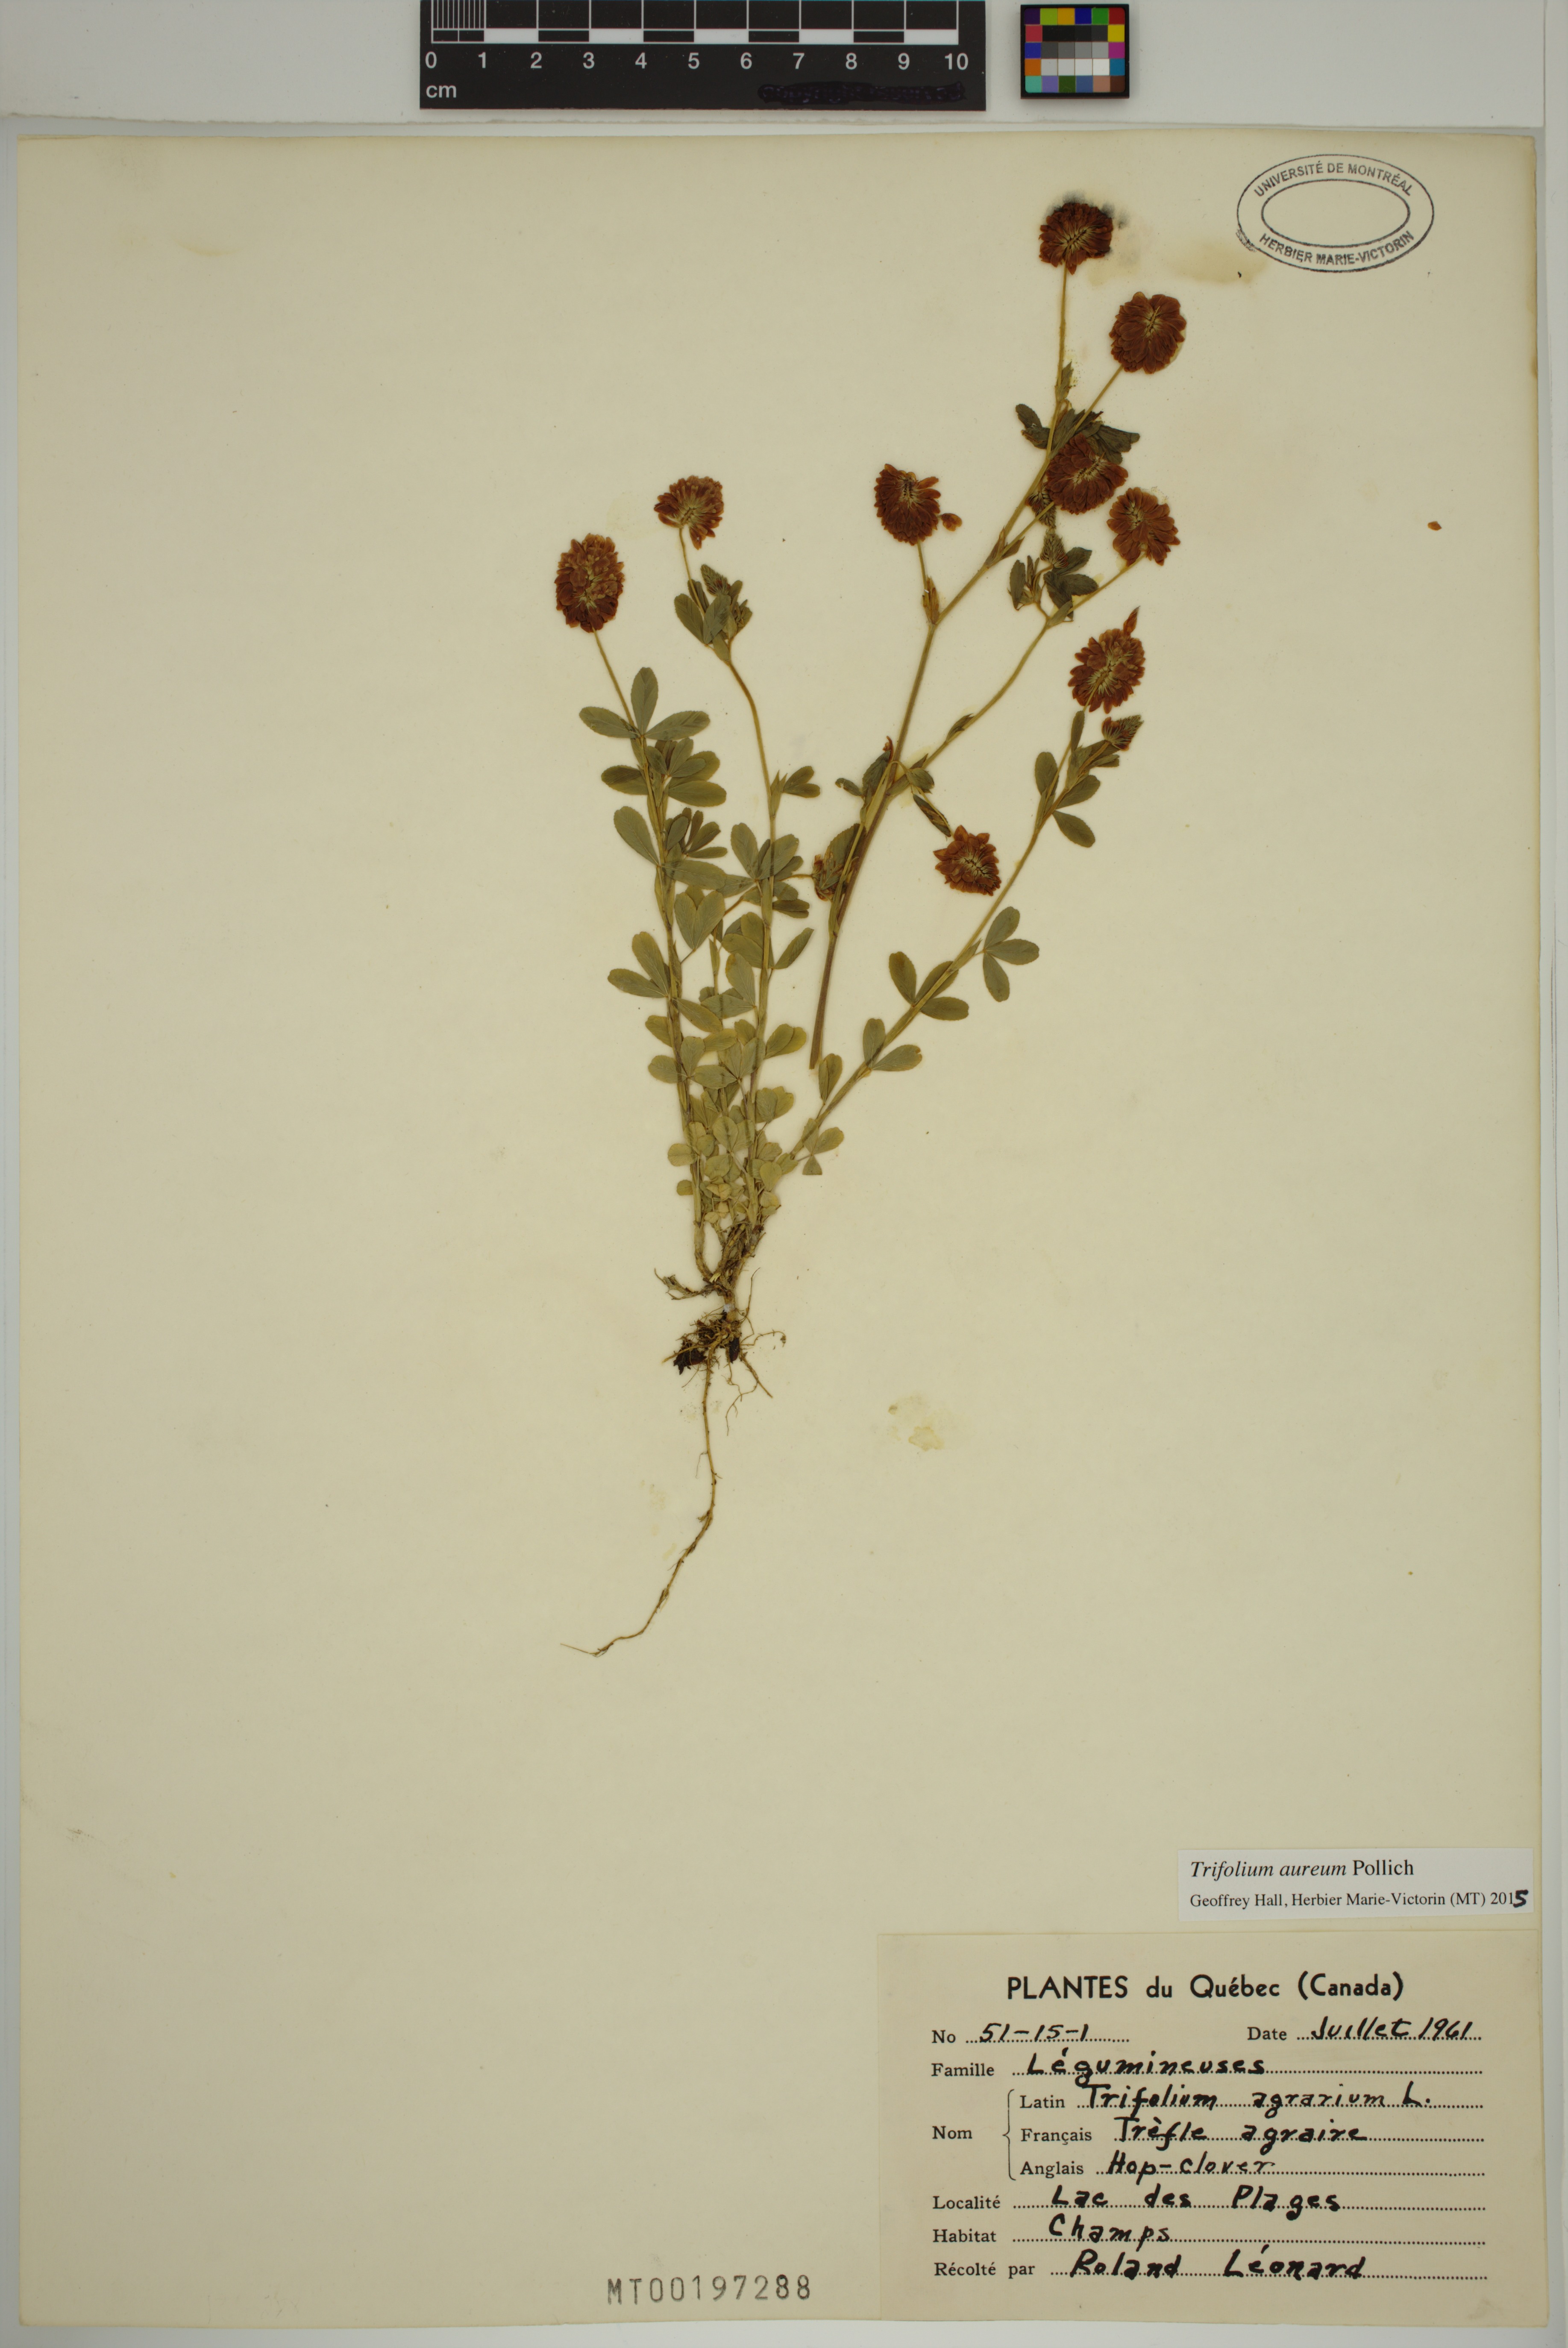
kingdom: Plantae
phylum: Tracheophyta
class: Magnoliopsida
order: Fabales
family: Fabaceae
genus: Trifolium
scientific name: Trifolium aureum
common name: Golden clover
